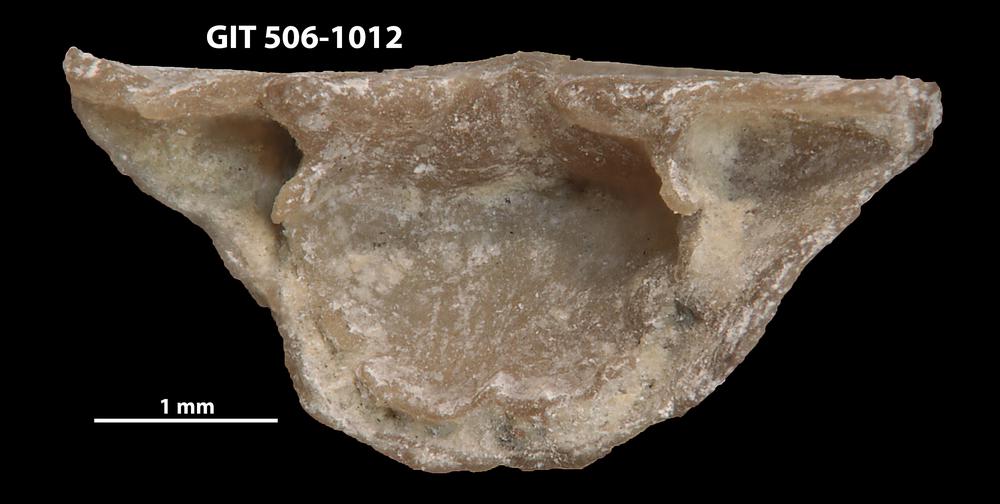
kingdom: Animalia
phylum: Brachiopoda
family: Leptellinidae
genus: Leangella
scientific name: Leangella Plectambonites scissa
